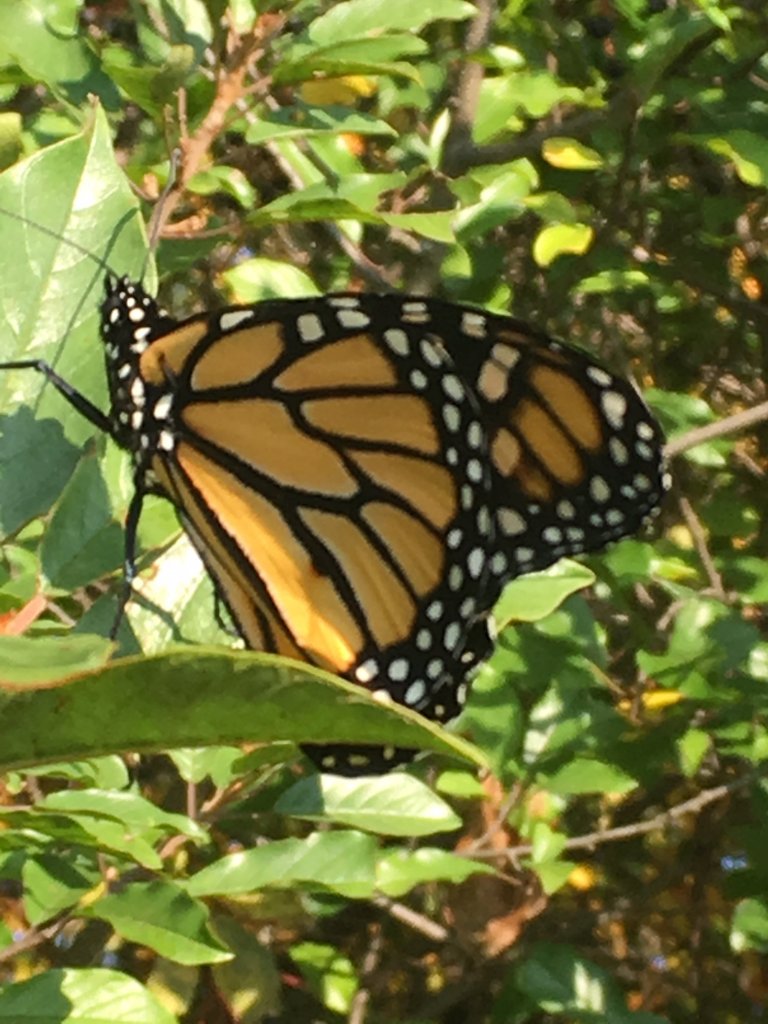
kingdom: Animalia
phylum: Arthropoda
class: Insecta
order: Lepidoptera
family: Nymphalidae
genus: Danaus
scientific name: Danaus plexippus
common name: Monarch
